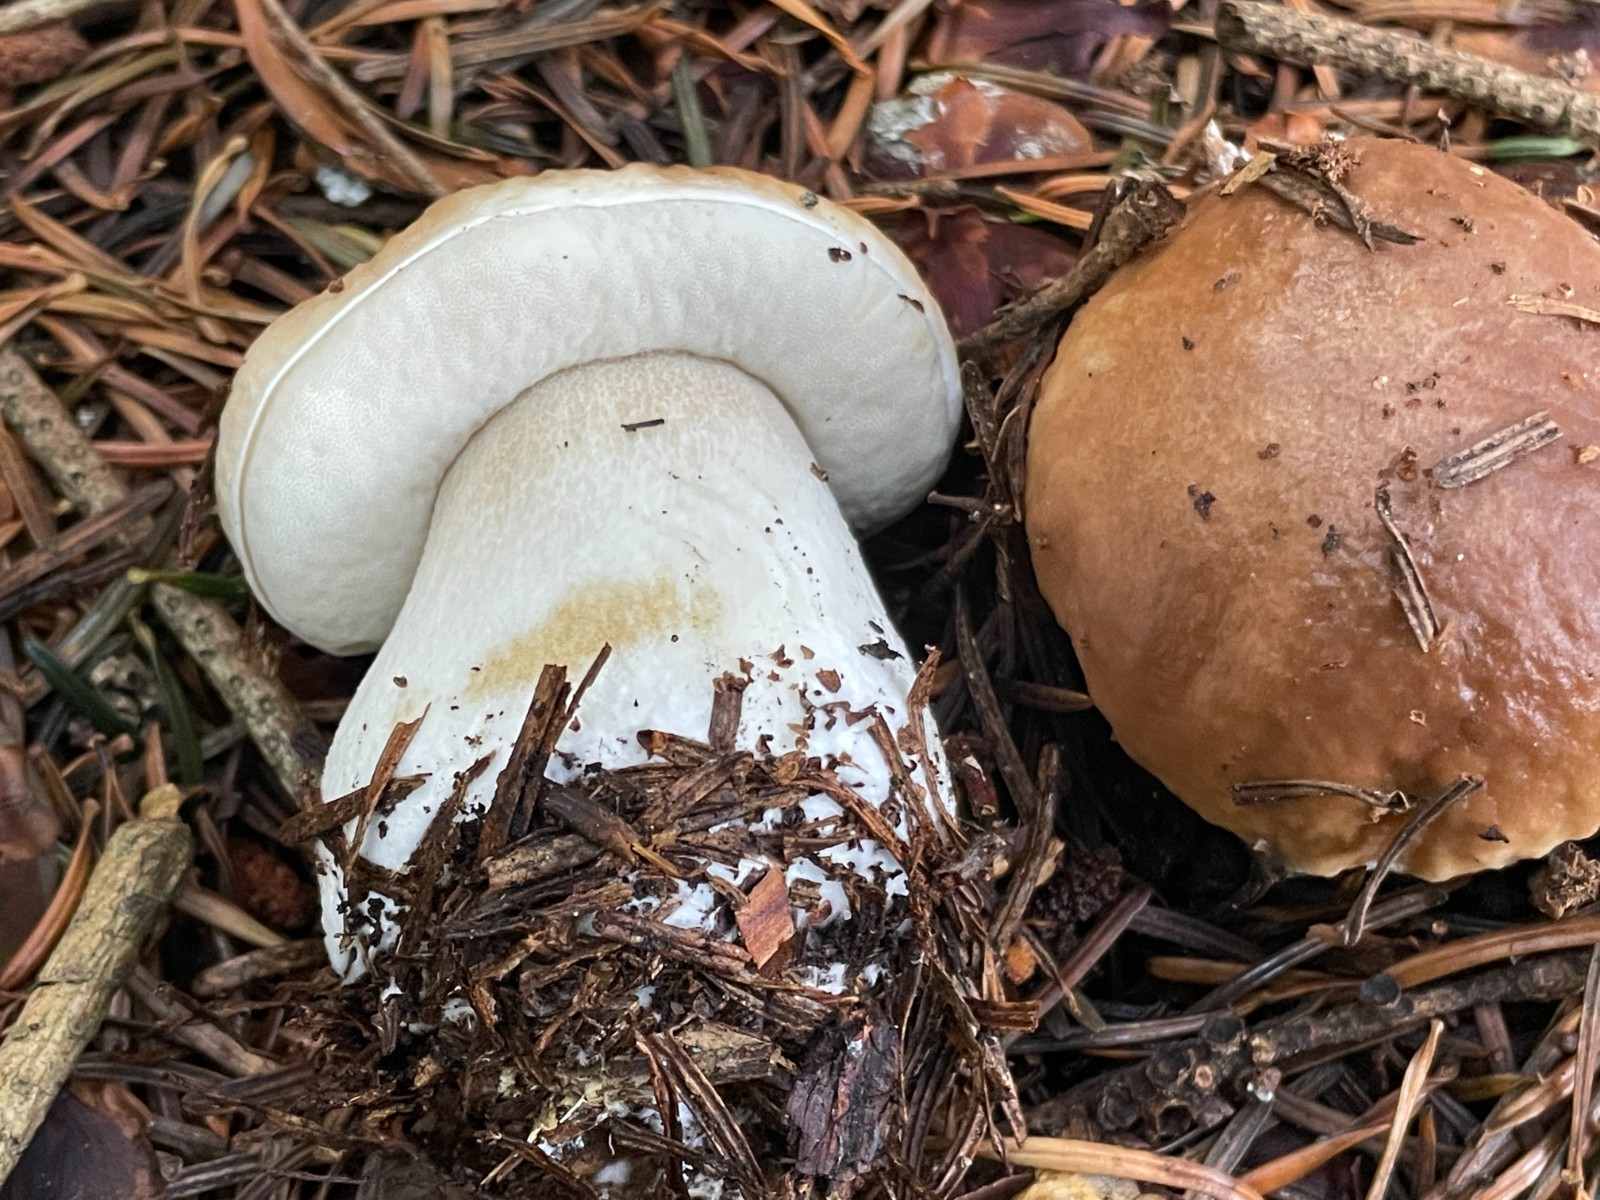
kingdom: Fungi
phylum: Basidiomycota
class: Agaricomycetes
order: Boletales
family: Boletaceae
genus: Boletus
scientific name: Boletus edulis
